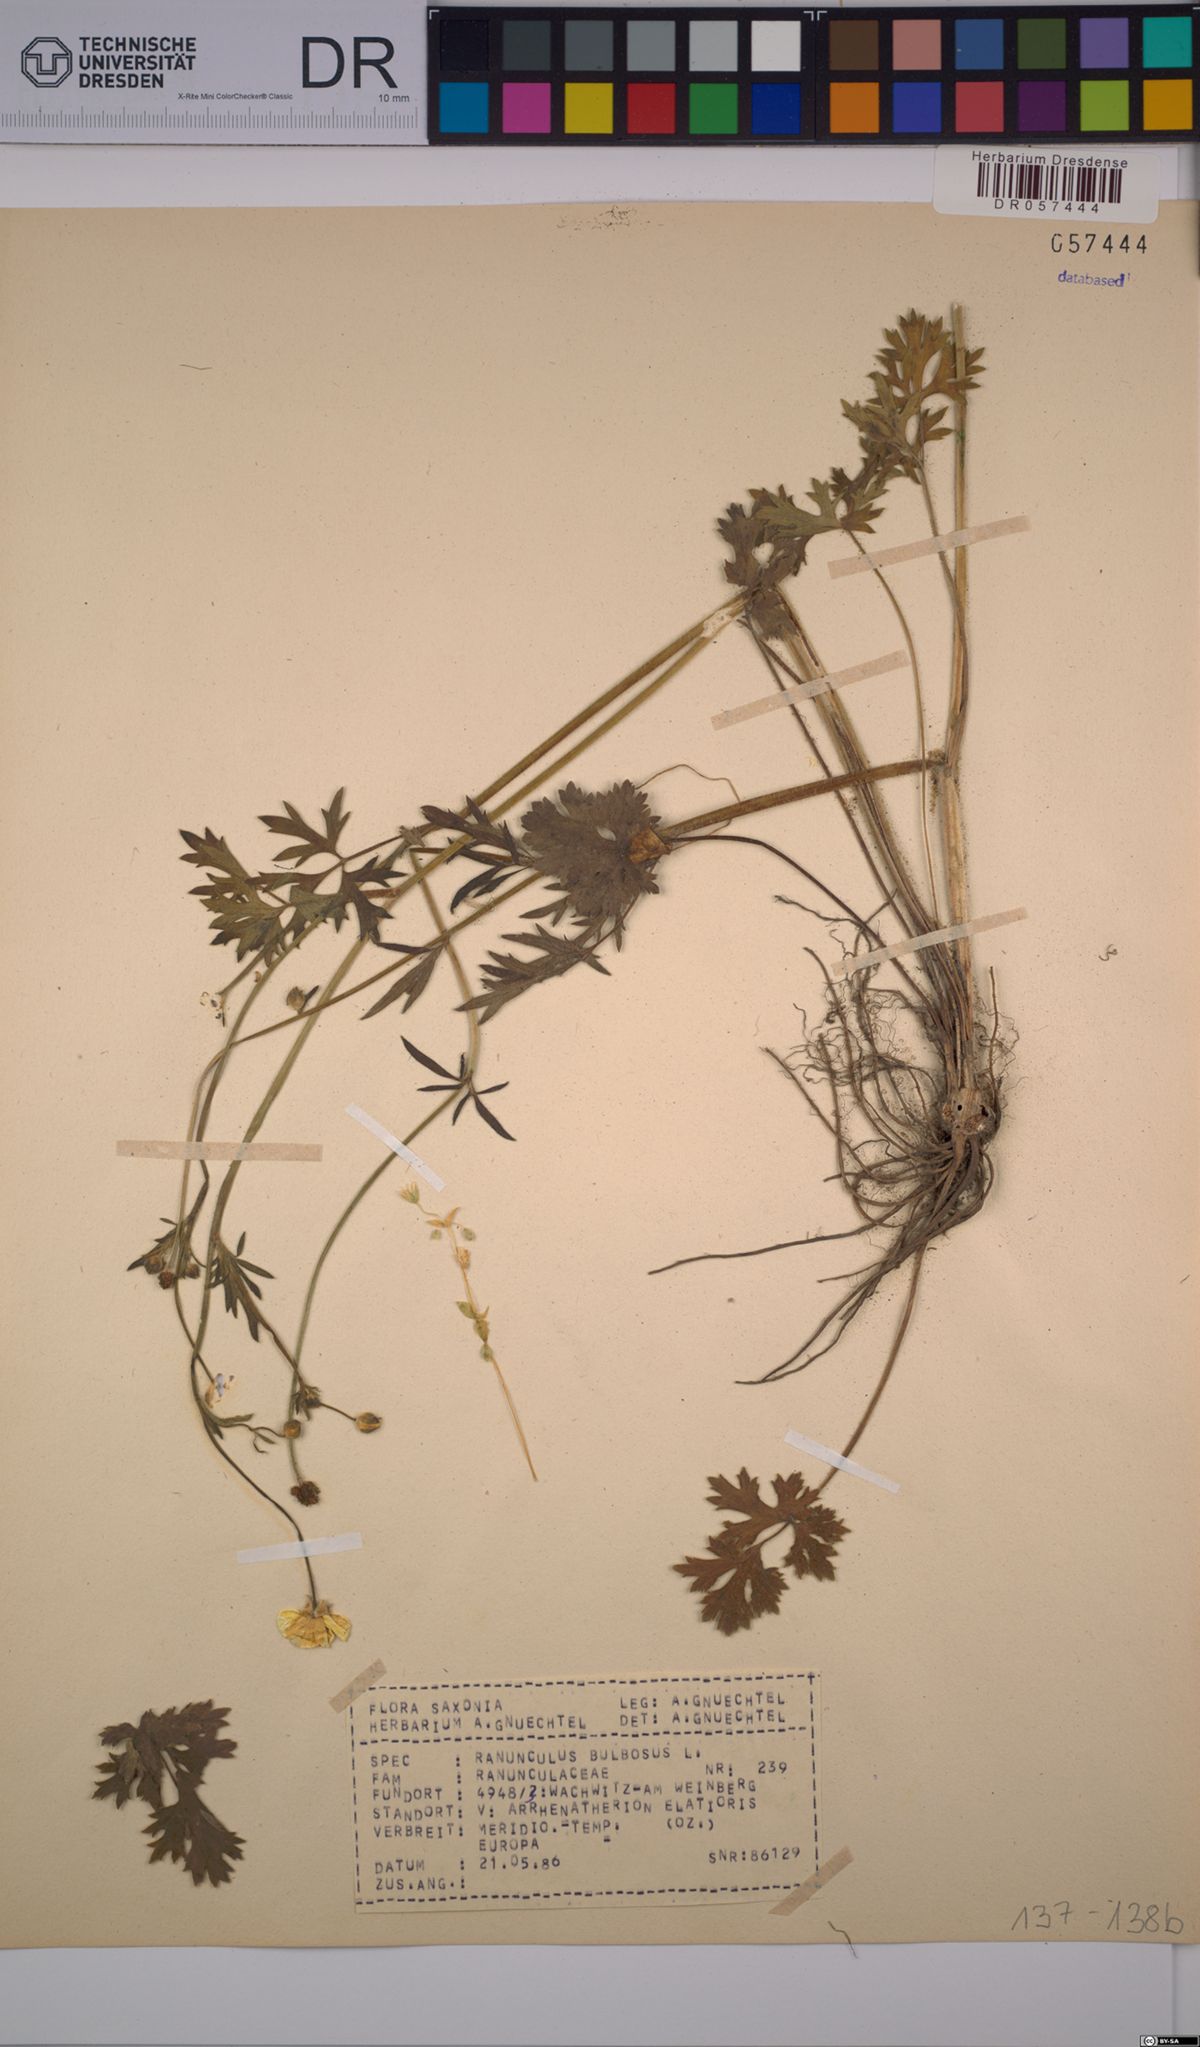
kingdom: Plantae
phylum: Tracheophyta
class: Magnoliopsida
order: Ranunculales
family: Ranunculaceae
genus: Ranunculus
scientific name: Ranunculus bulbosus
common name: Bulbous buttercup
